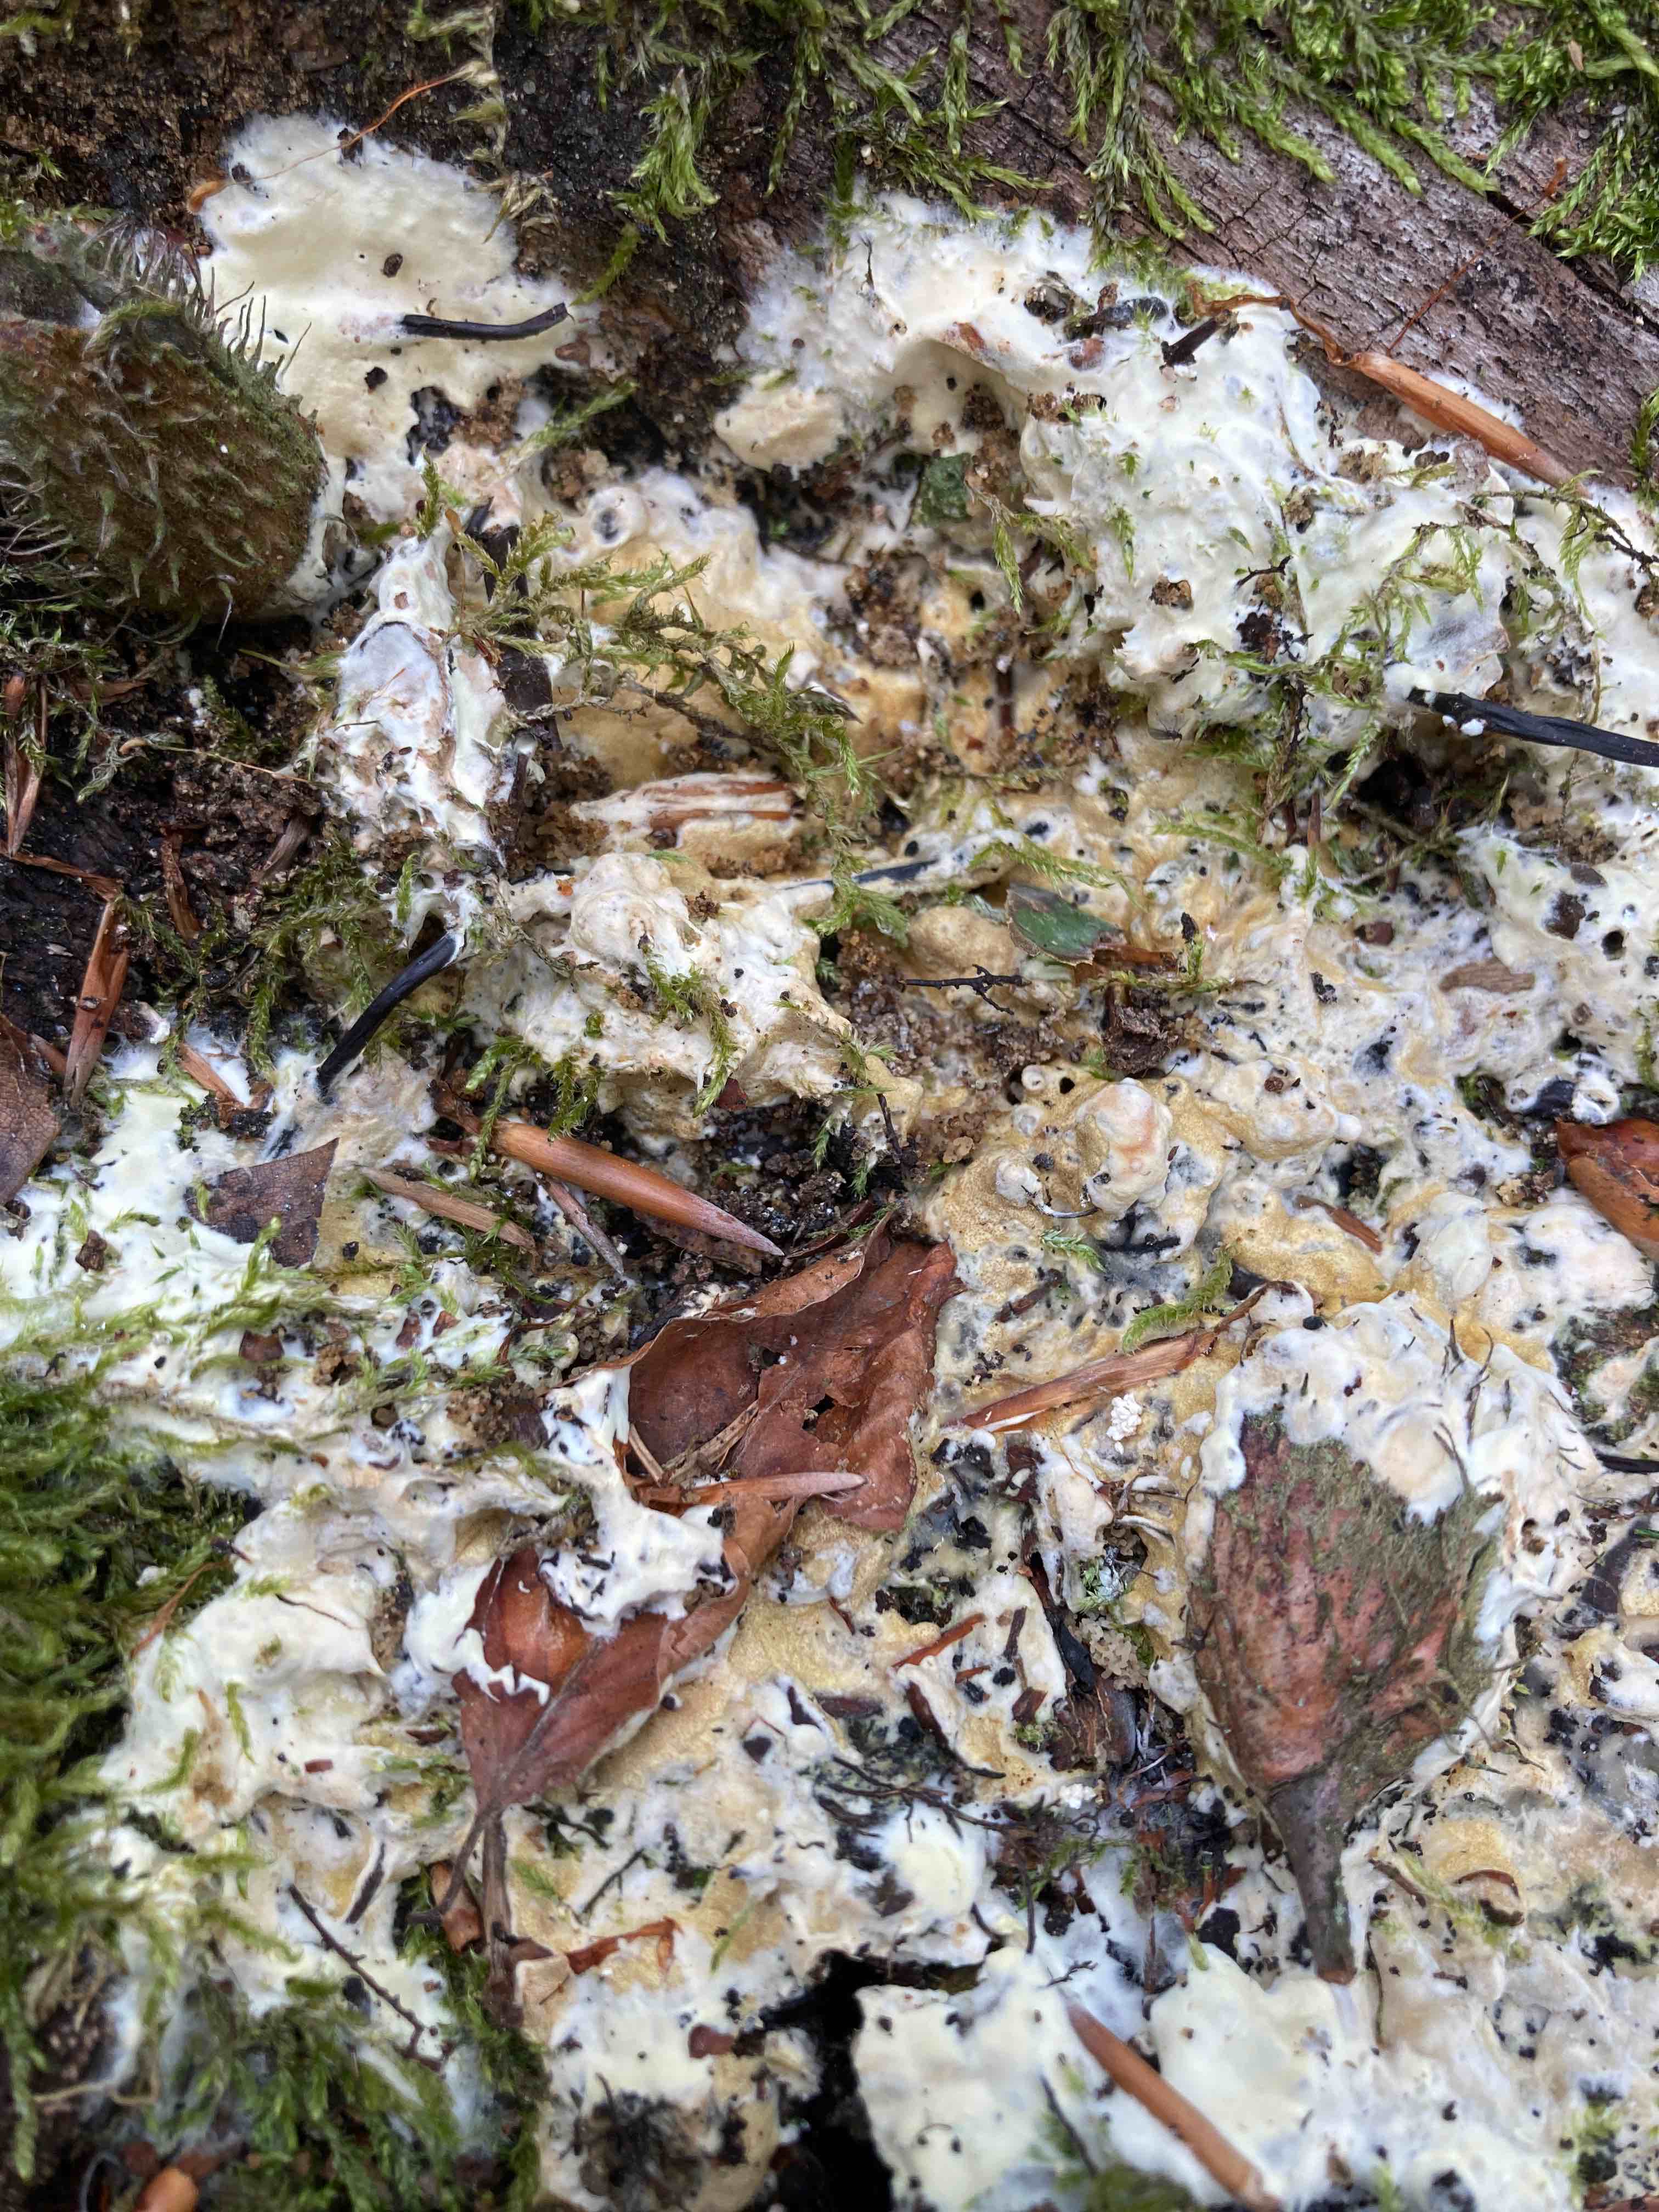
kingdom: Fungi
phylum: Ascomycota
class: Sordariomycetes
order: Hypocreales
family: Hypocreaceae
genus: Trichoderma
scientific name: Trichoderma citrinum
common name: udbredt kødkerne
